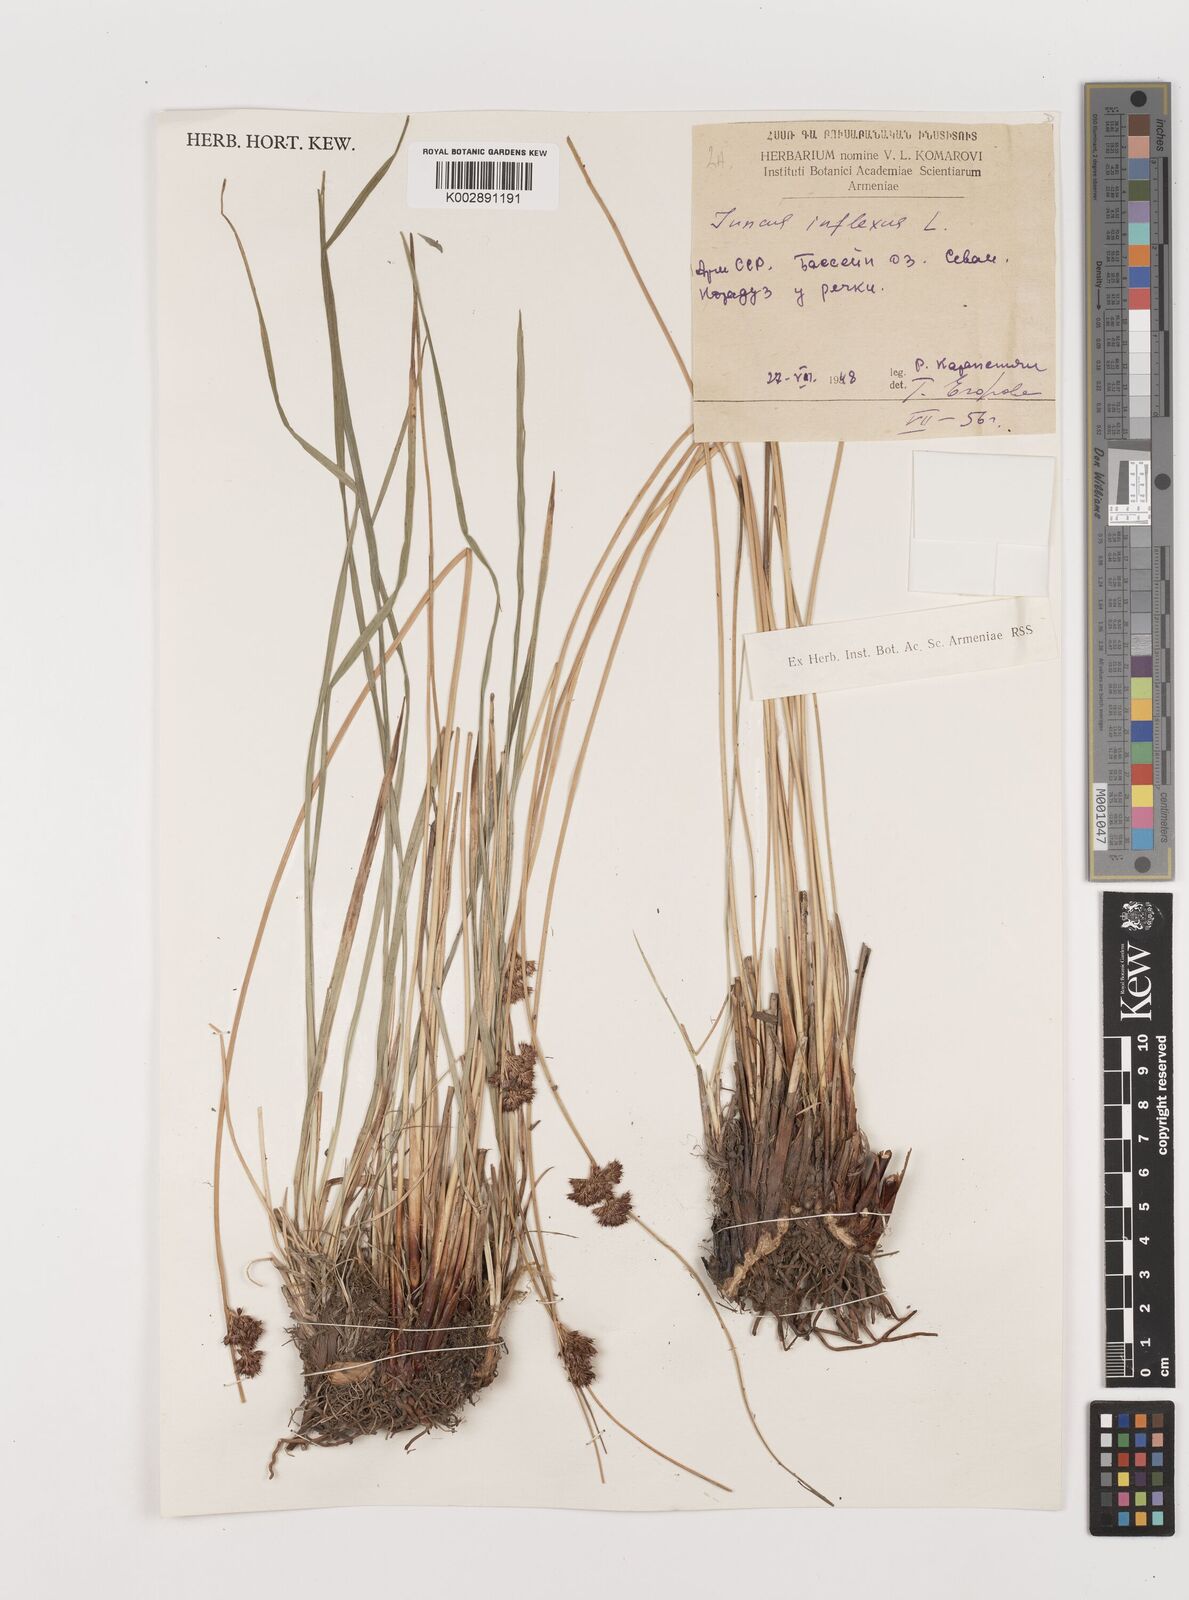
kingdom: Plantae
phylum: Tracheophyta
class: Liliopsida
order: Poales
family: Juncaceae
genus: Juncus
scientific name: Juncus inflexus
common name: Hard rush
